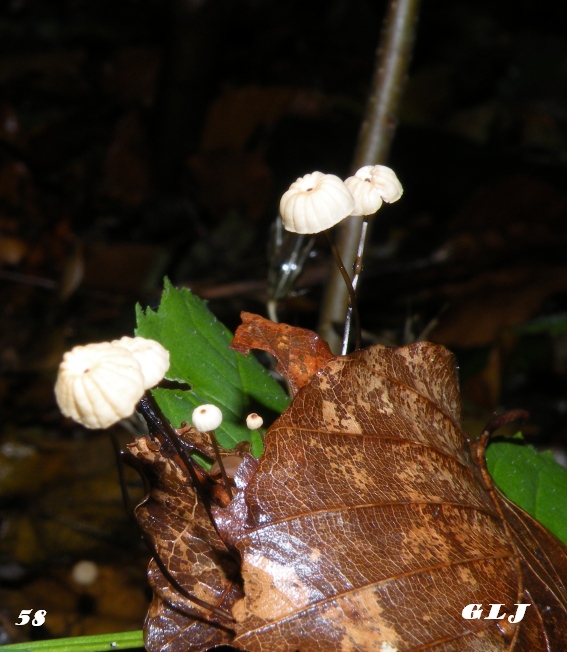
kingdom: Fungi
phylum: Basidiomycota
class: Agaricomycetes
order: Agaricales
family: Marasmiaceae
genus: Marasmius
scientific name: Marasmius bulliardii
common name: furet bruskhat
